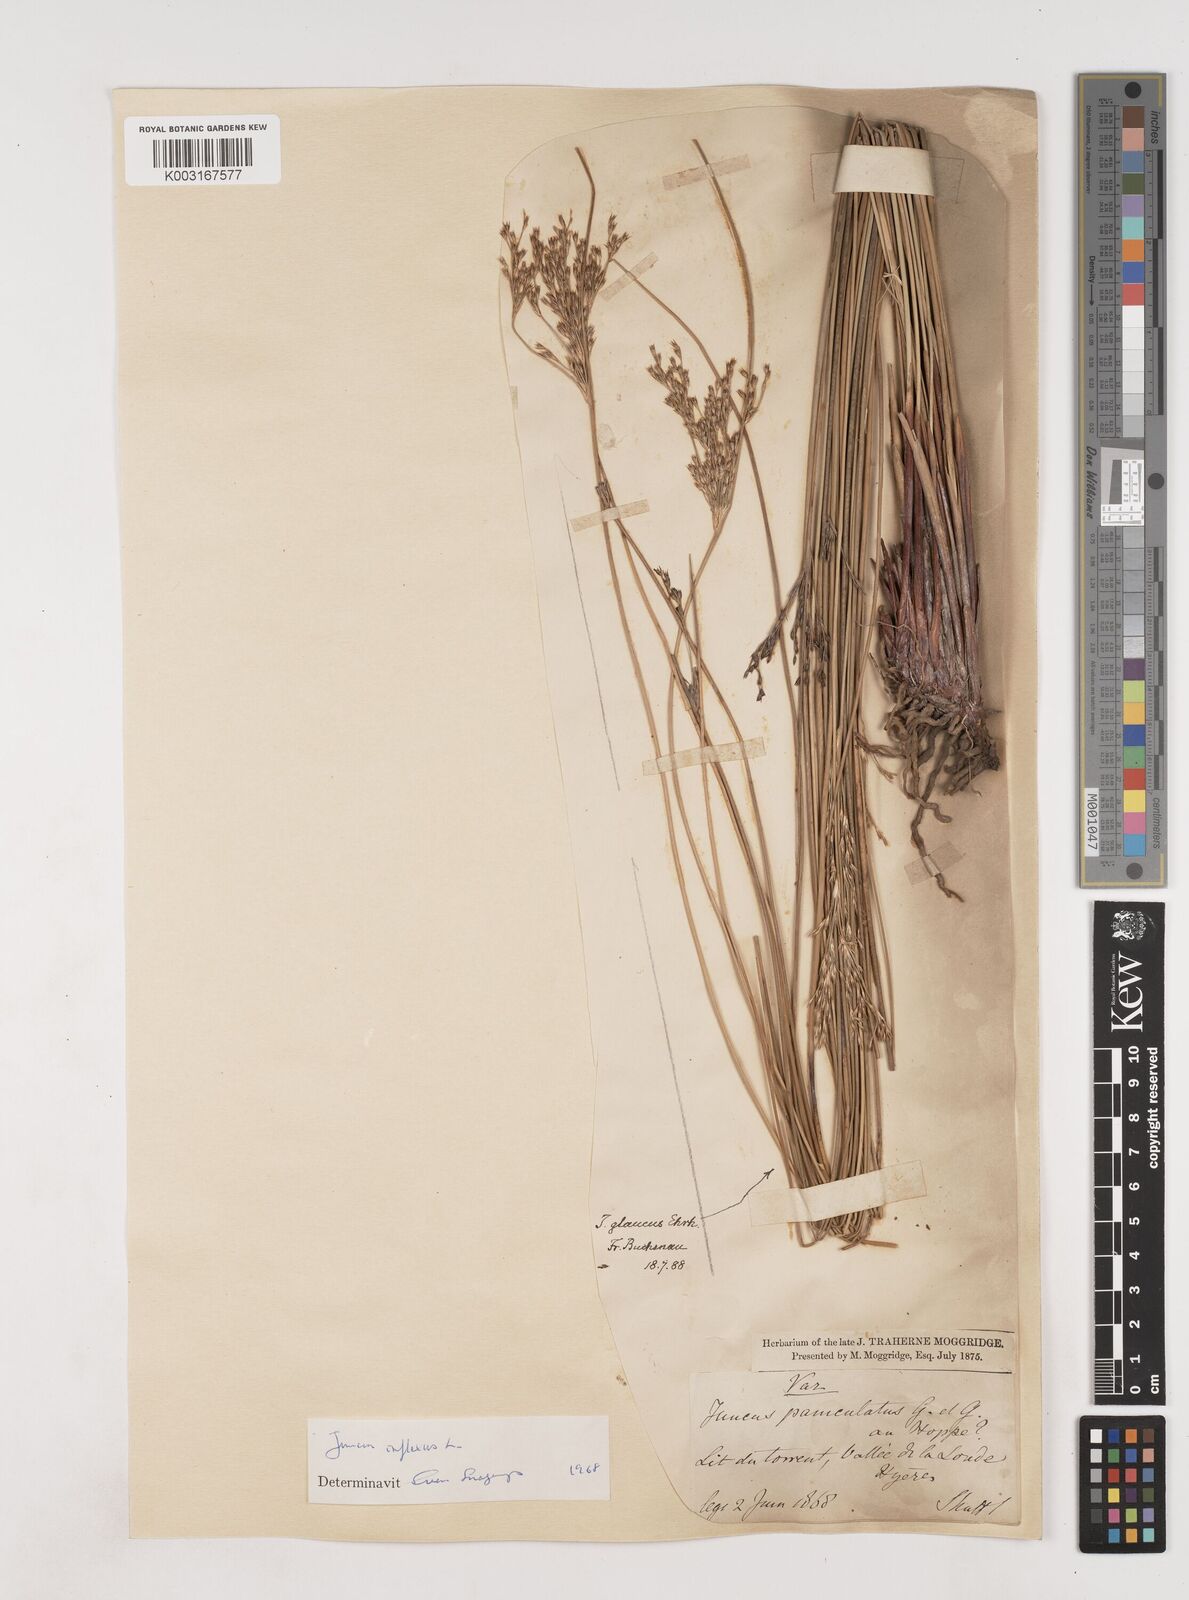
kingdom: Plantae
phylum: Tracheophyta
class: Liliopsida
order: Poales
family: Juncaceae
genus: Juncus
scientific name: Juncus inflexus
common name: Hard rush
